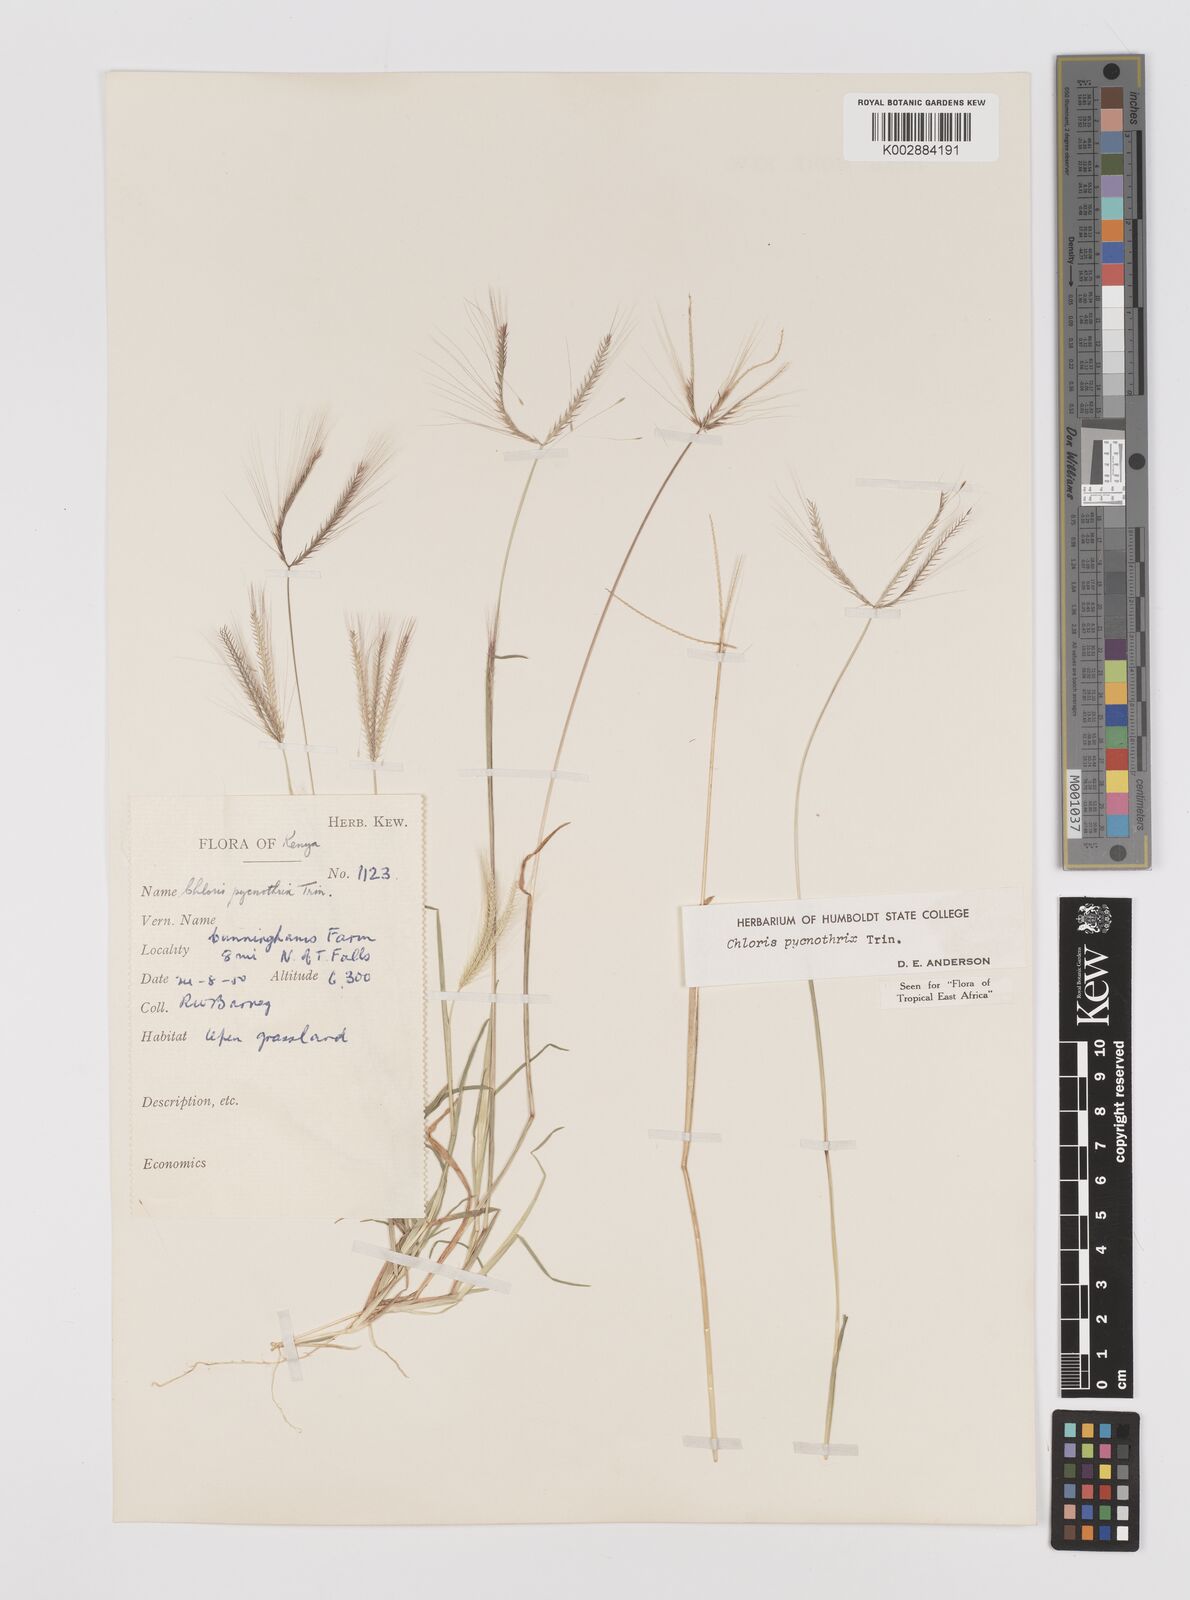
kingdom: Plantae
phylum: Tracheophyta
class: Liliopsida
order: Poales
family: Poaceae
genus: Chloris
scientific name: Chloris pycnothrix
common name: Spiderweb chloris
